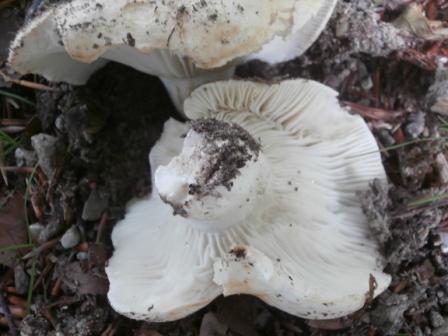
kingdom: Fungi
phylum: Basidiomycota
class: Agaricomycetes
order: Russulales
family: Russulaceae
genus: Russula
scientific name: Russula chloroides
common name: grønhalset tragt-skørhat
